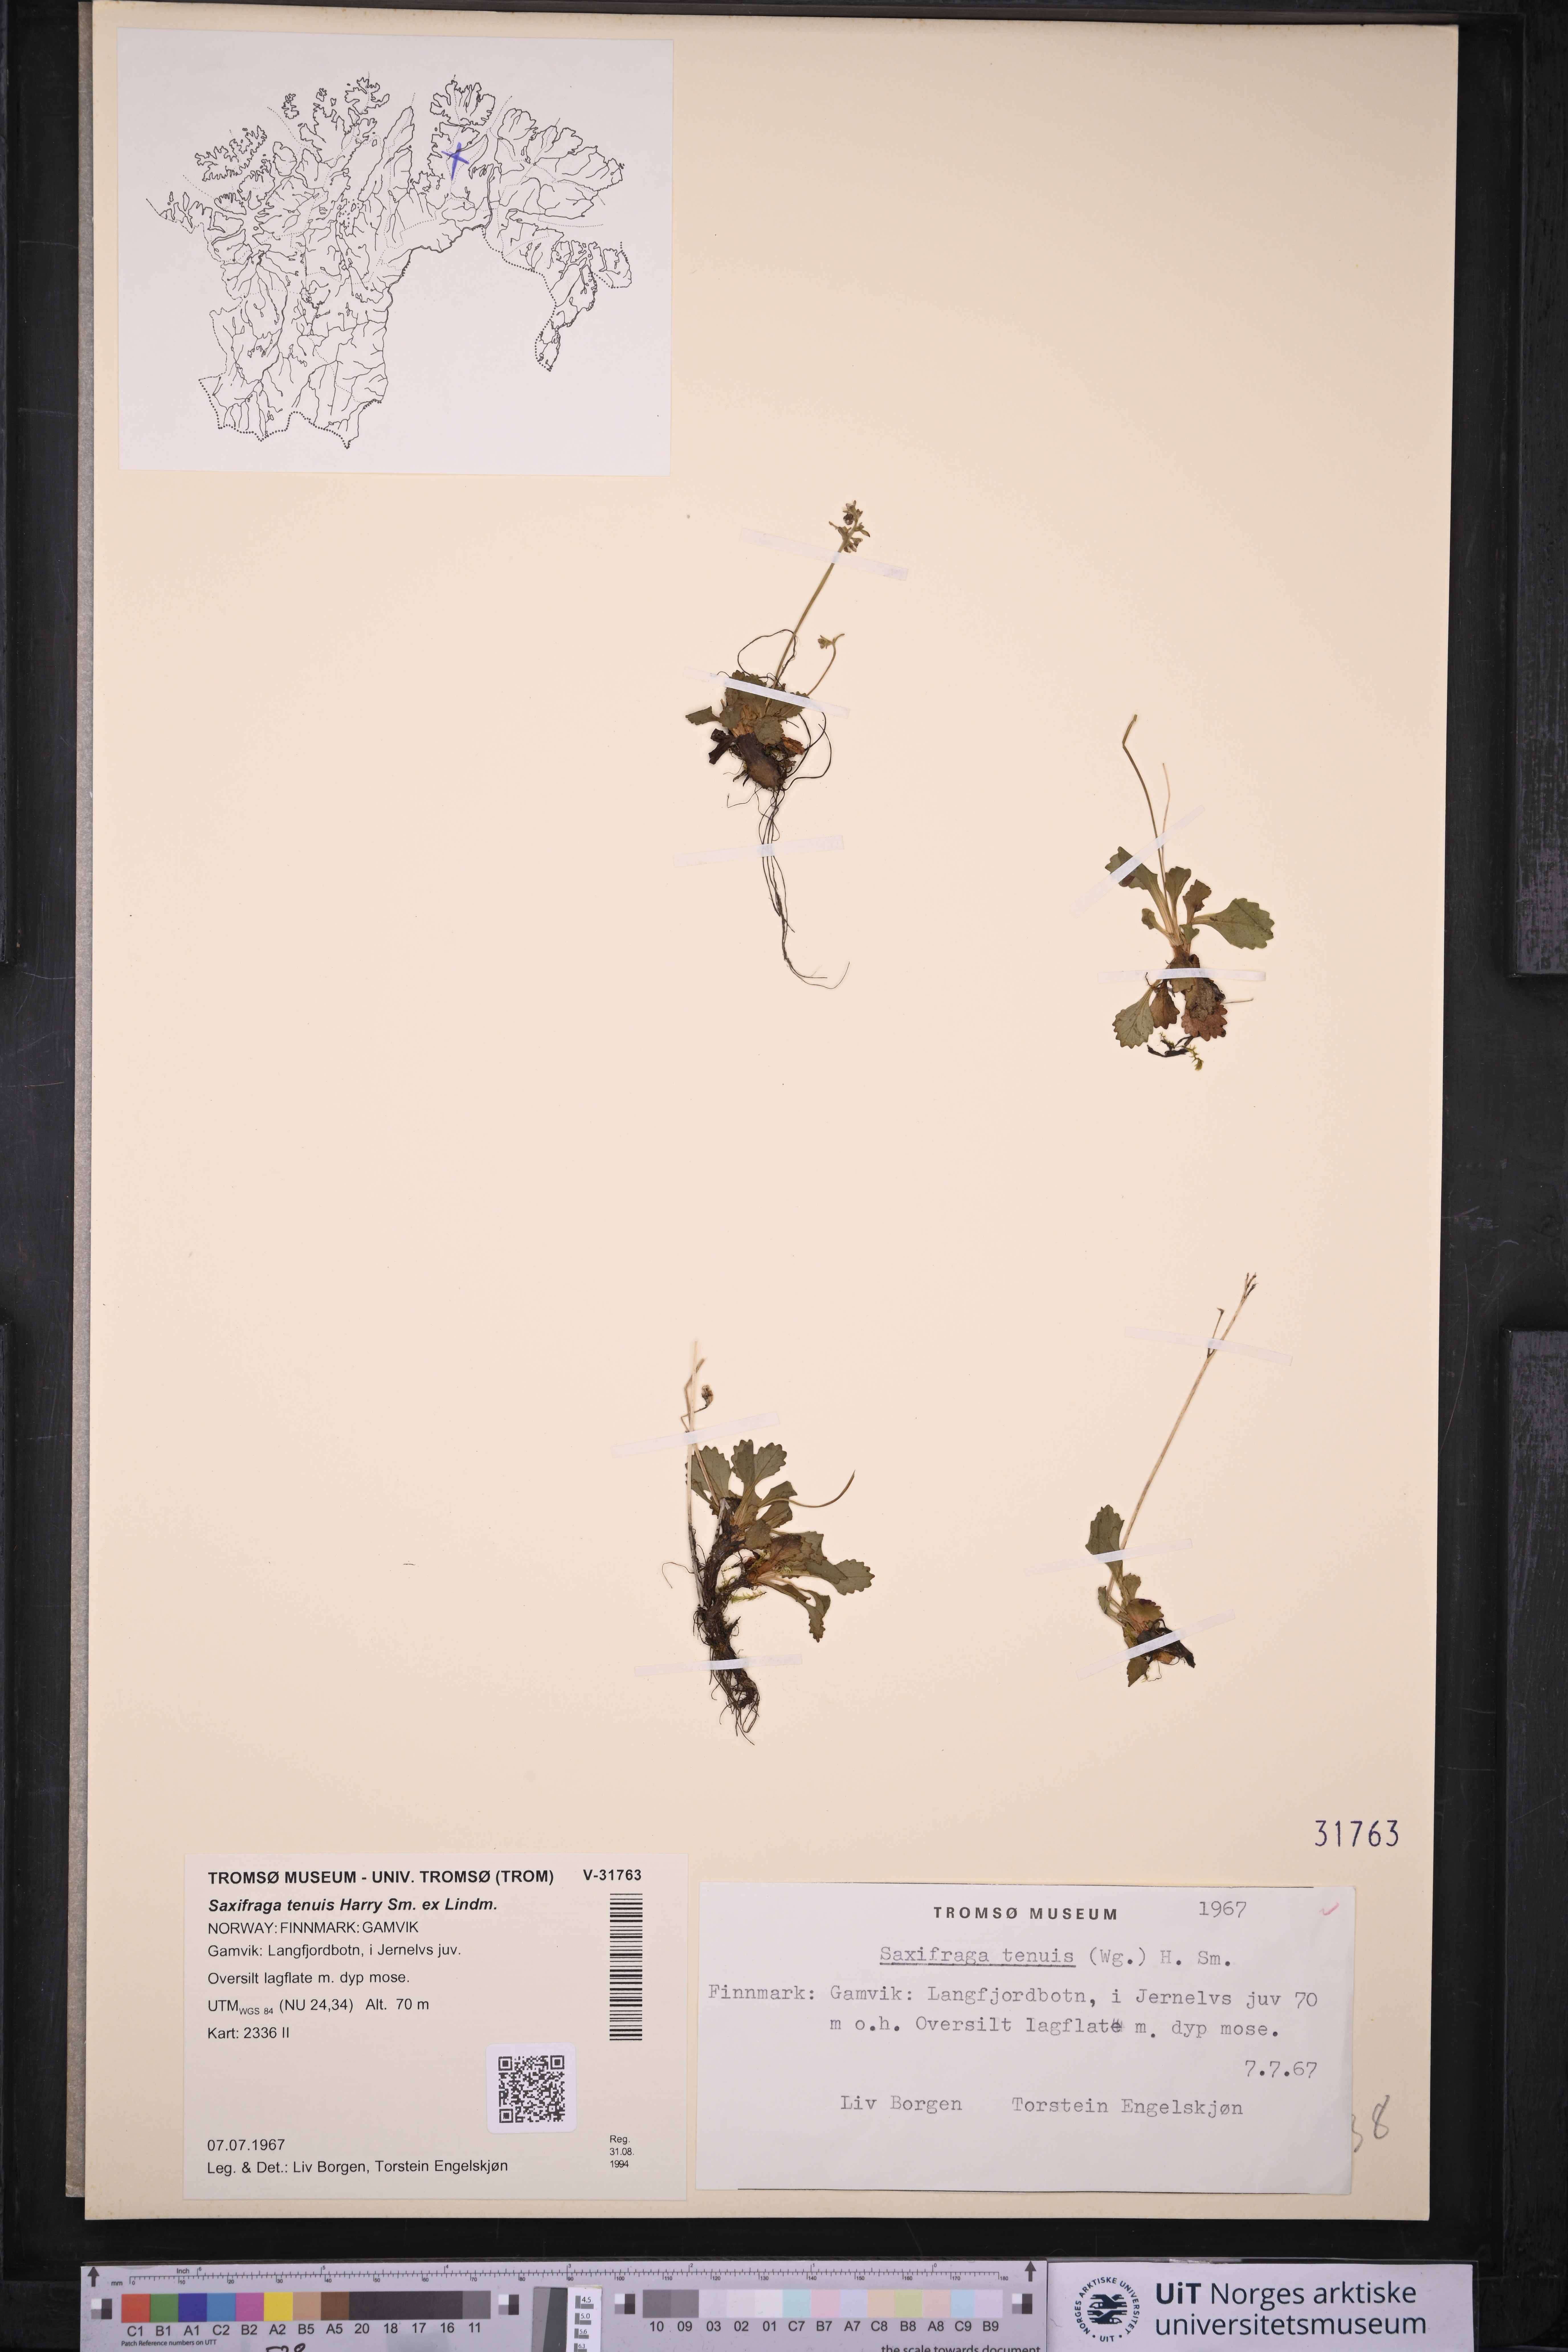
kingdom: Plantae
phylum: Tracheophyta
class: Magnoliopsida
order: Saxifragales
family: Saxifragaceae
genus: Micranthes
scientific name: Micranthes tenuis
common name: Ottertail pass saxifrage
